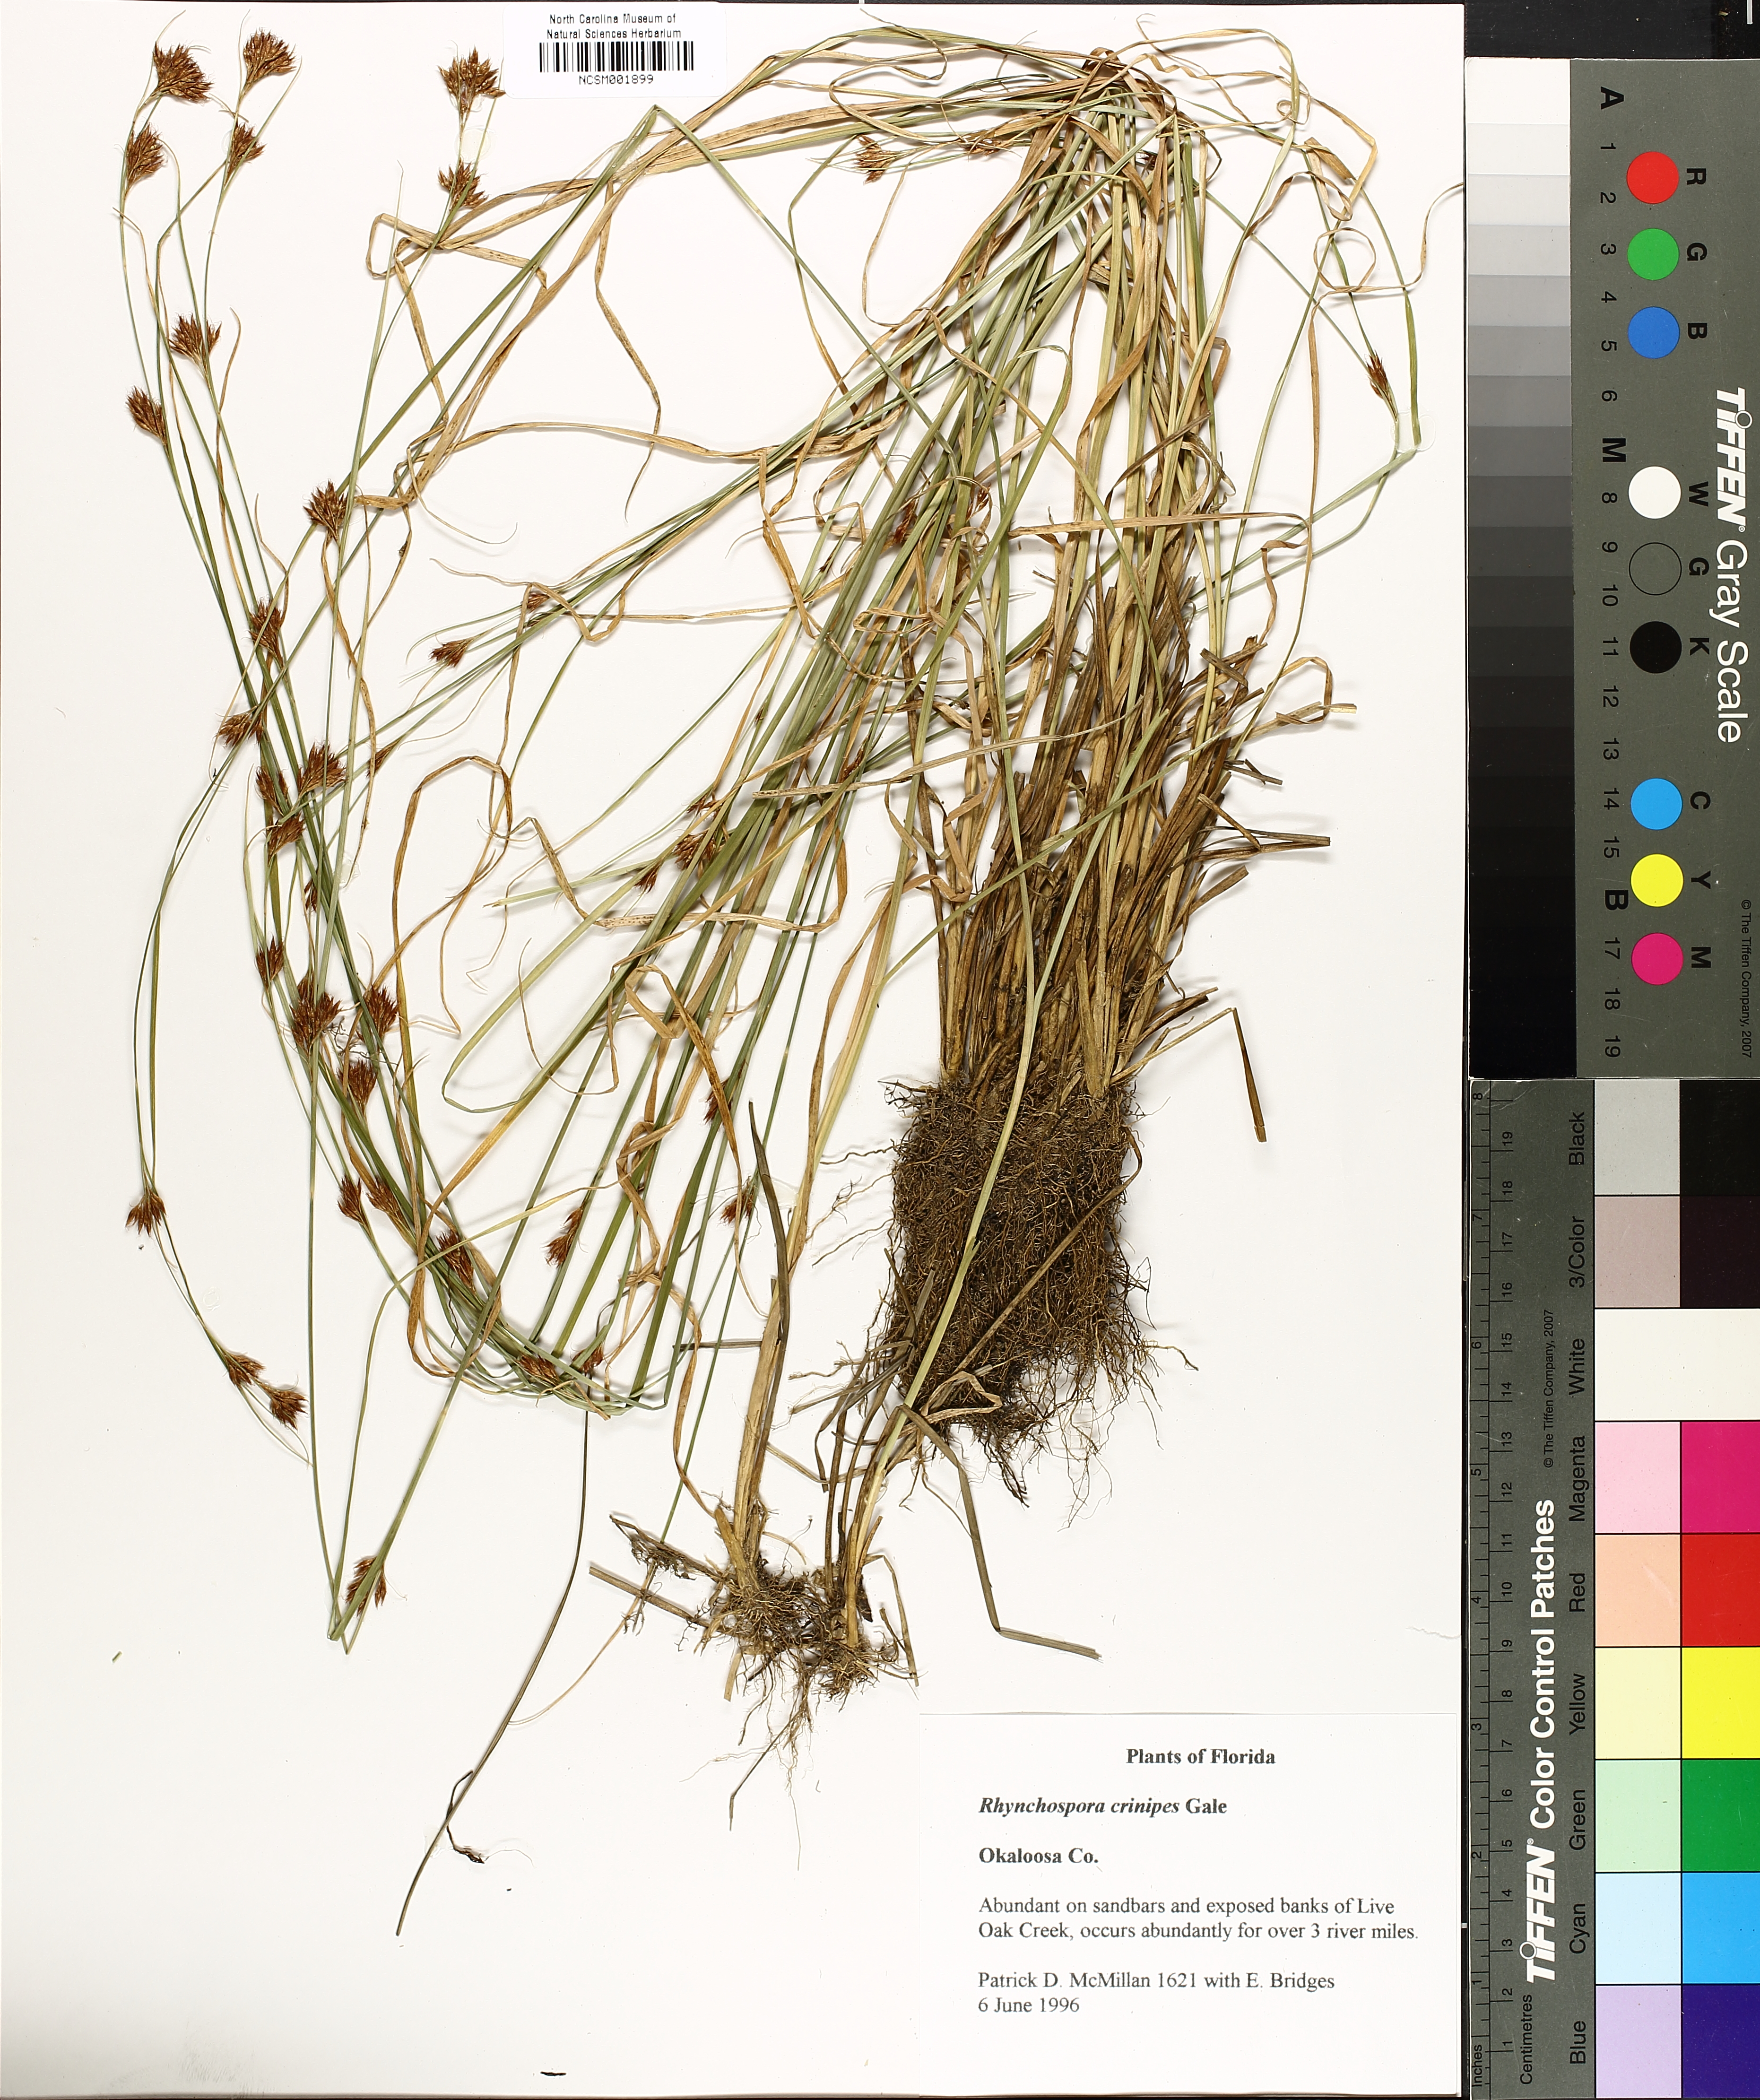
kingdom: Plantae
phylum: Tracheophyta
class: Liliopsida
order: Poales
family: Cyperaceae
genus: Rhynchospora
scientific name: Rhynchospora crinipes
